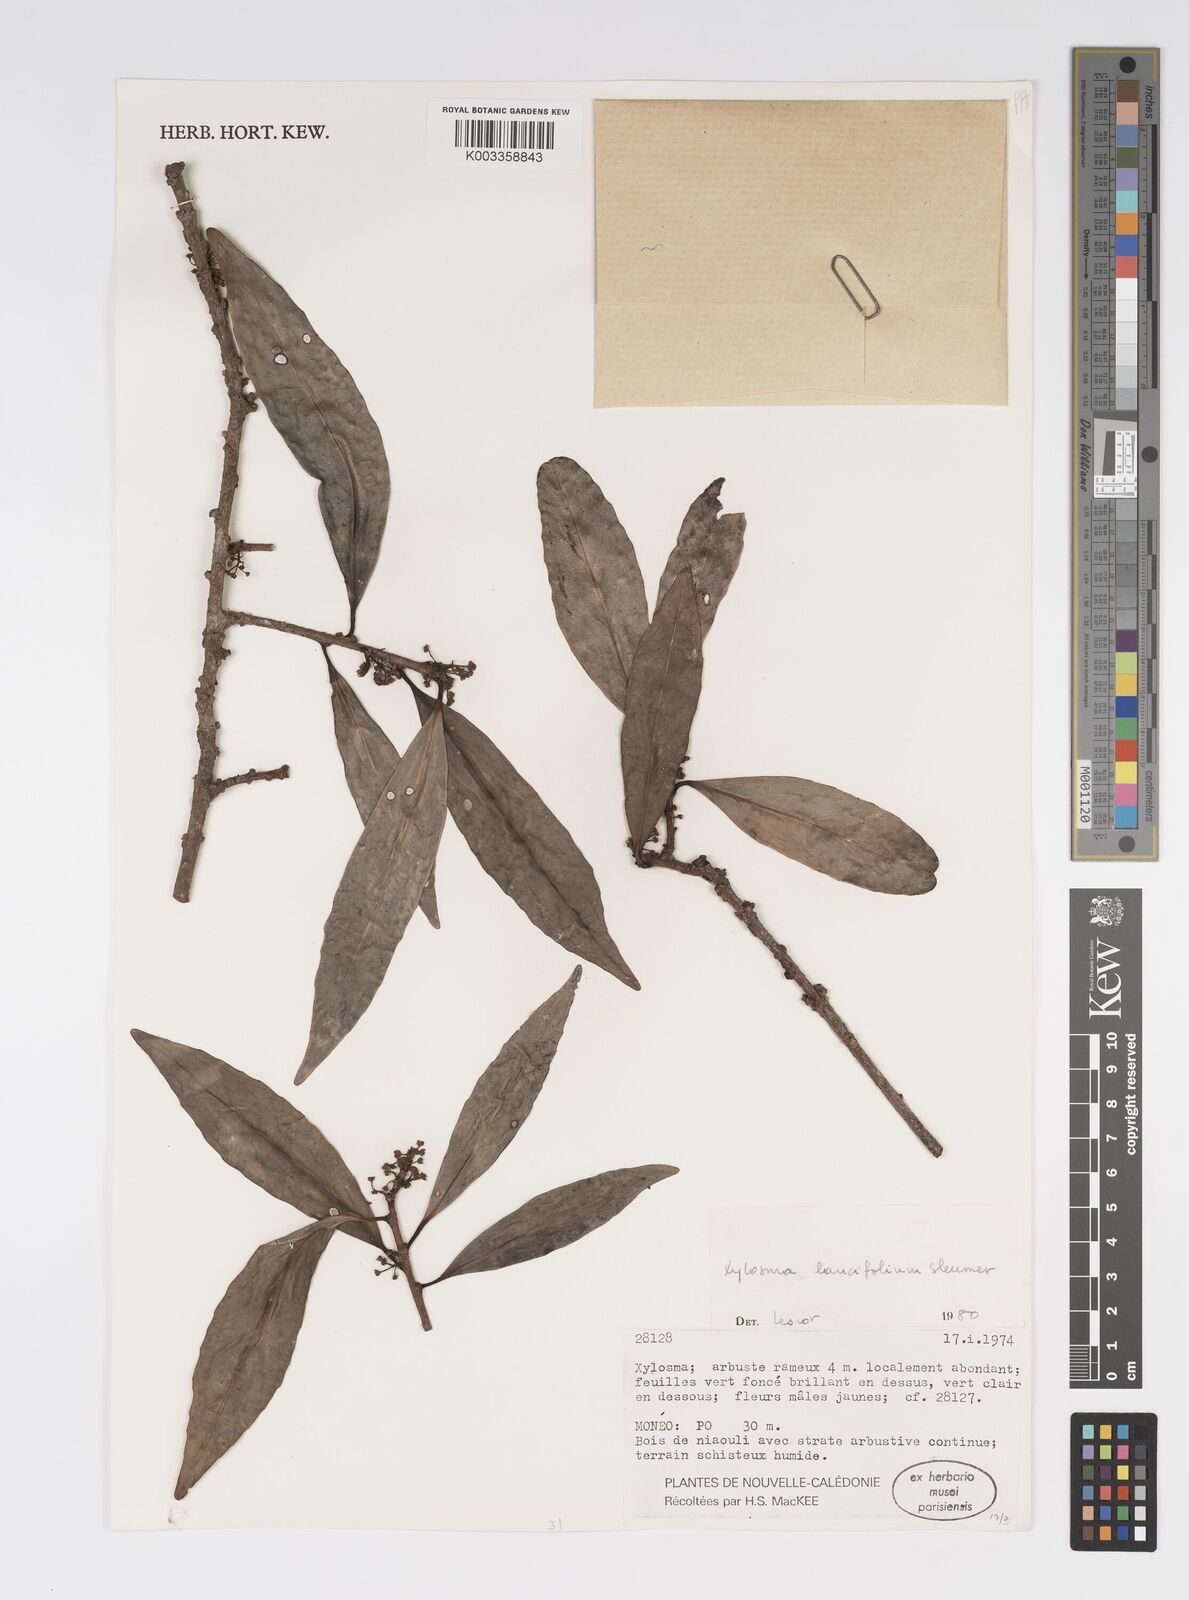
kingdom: Plantae
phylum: Tracheophyta
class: Magnoliopsida
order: Malpighiales
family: Salicaceae
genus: Xylosma
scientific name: Xylosma
